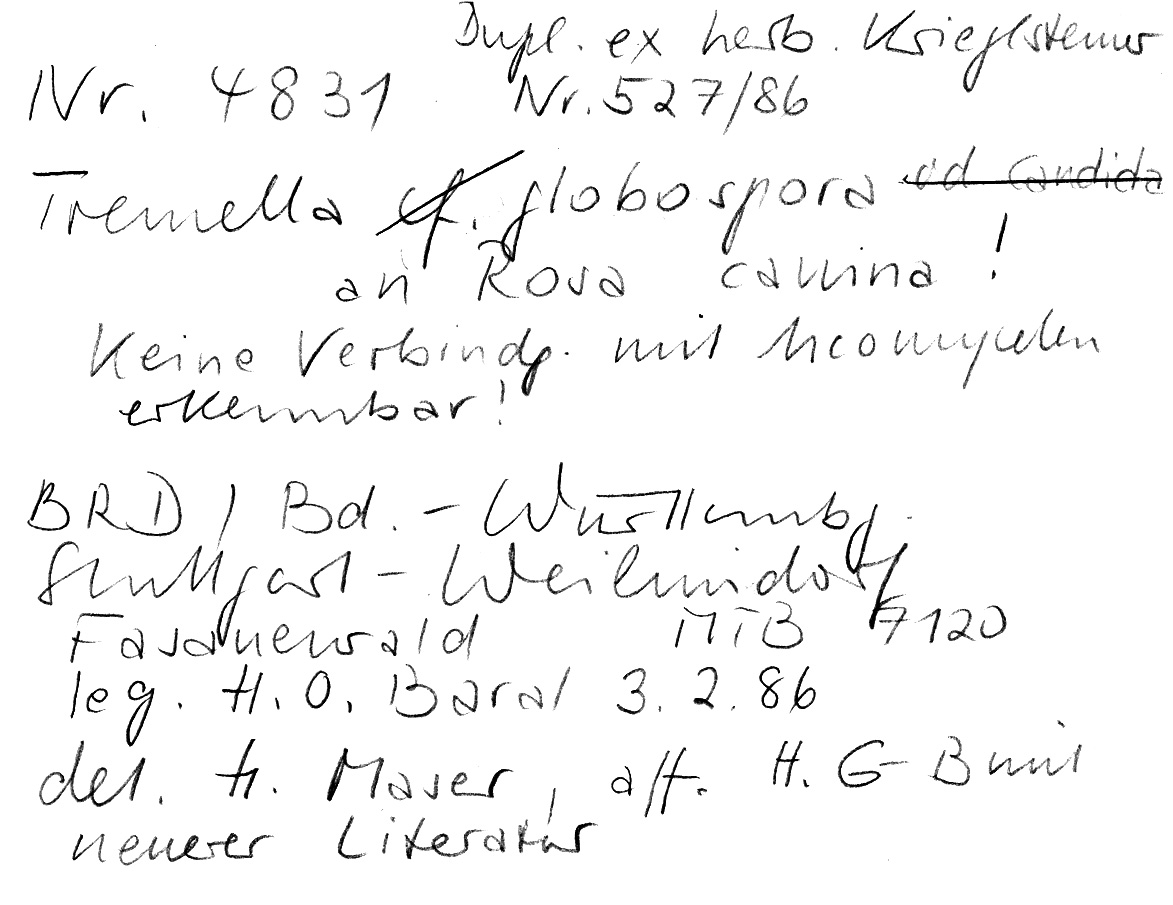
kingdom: Fungi
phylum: Basidiomycota
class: Tremellomycetes
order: Tremellales
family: Tremellaceae
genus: Tremella
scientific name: Tremella globispora
